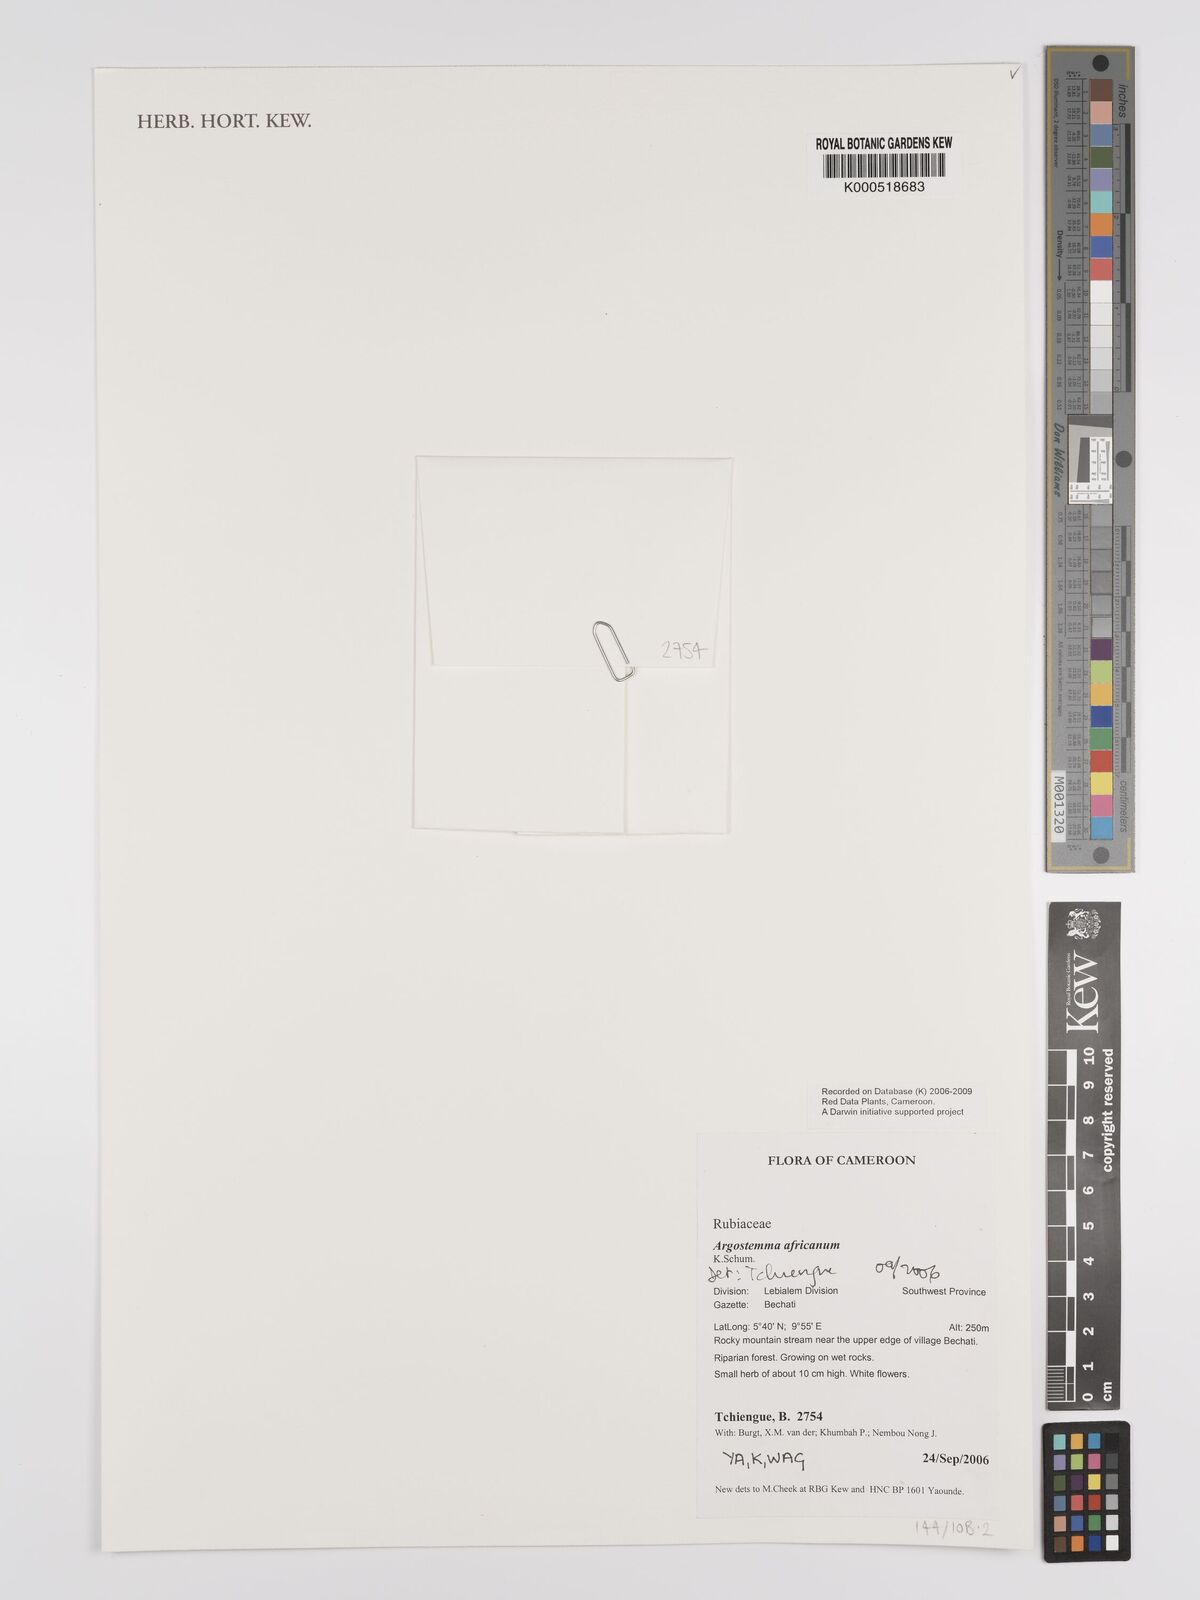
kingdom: Plantae
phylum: Tracheophyta
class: Magnoliopsida
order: Gentianales
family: Rubiaceae
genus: Argostemma
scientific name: Argostemma africanum
